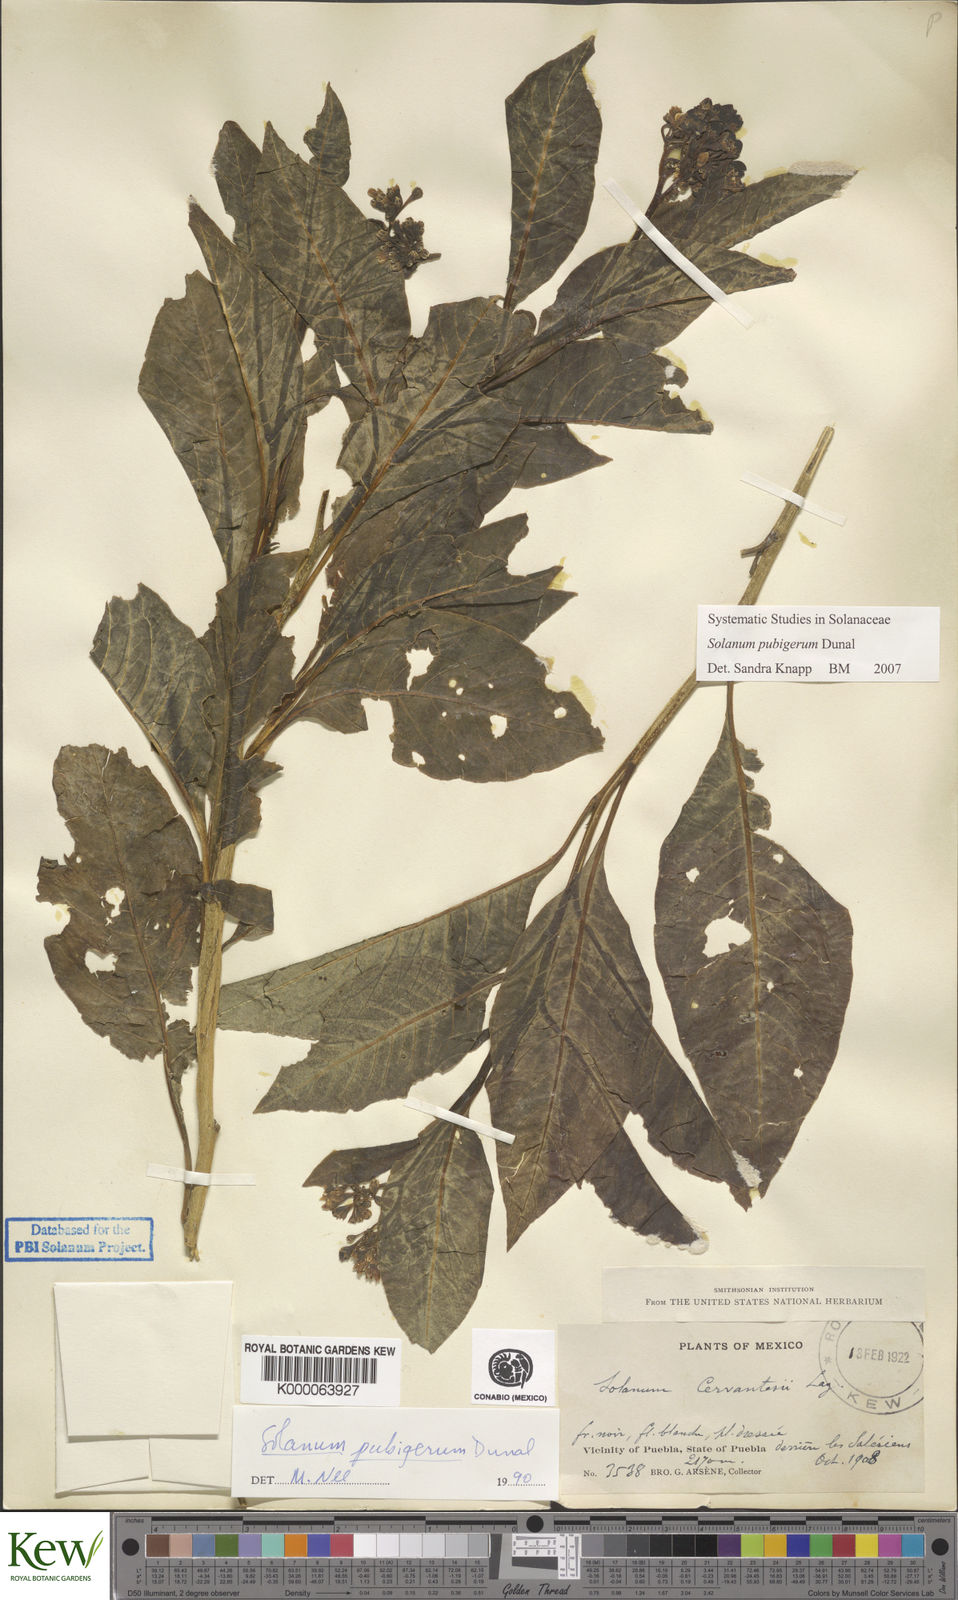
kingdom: Plantae
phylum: Tracheophyta
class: Magnoliopsida
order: Solanales
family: Solanaceae
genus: Solanum
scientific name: Solanum pubigerum
